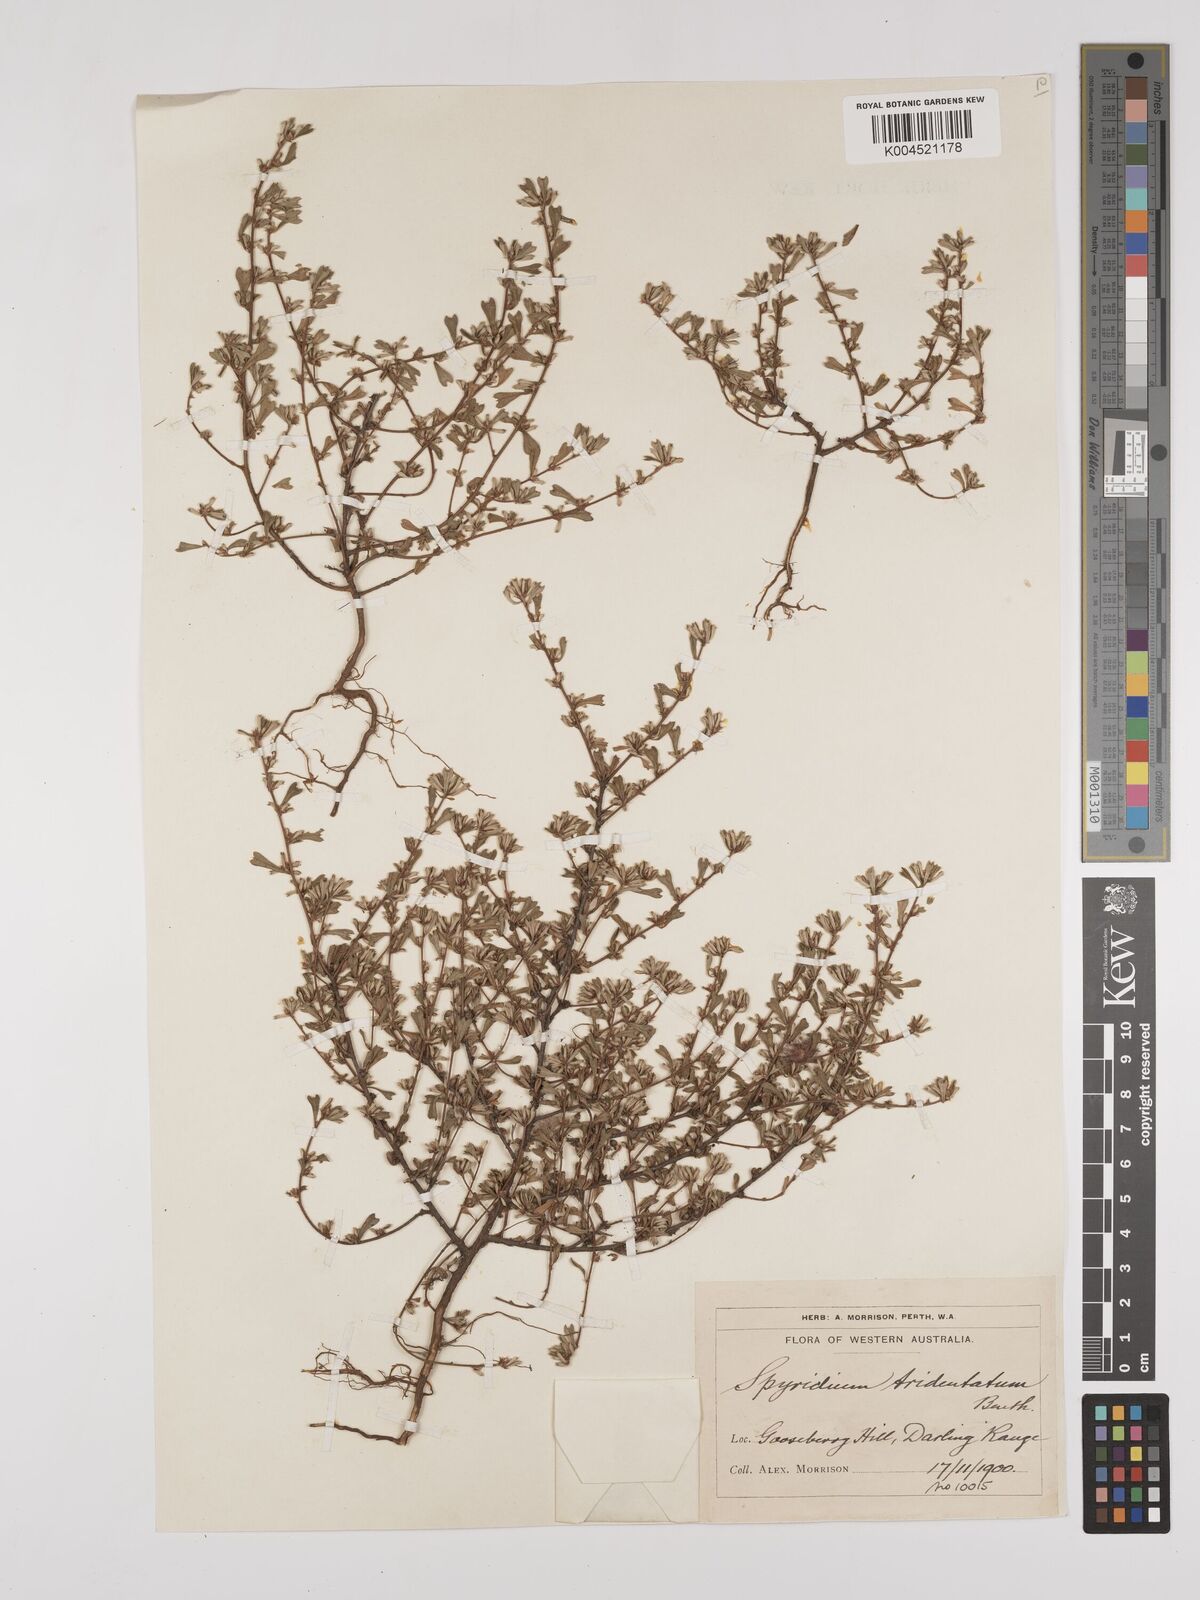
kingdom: Plantae
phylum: Tracheophyta
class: Magnoliopsida
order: Rosales
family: Rhamnaceae
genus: Stenanthemum
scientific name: Stenanthemum tridentatum
